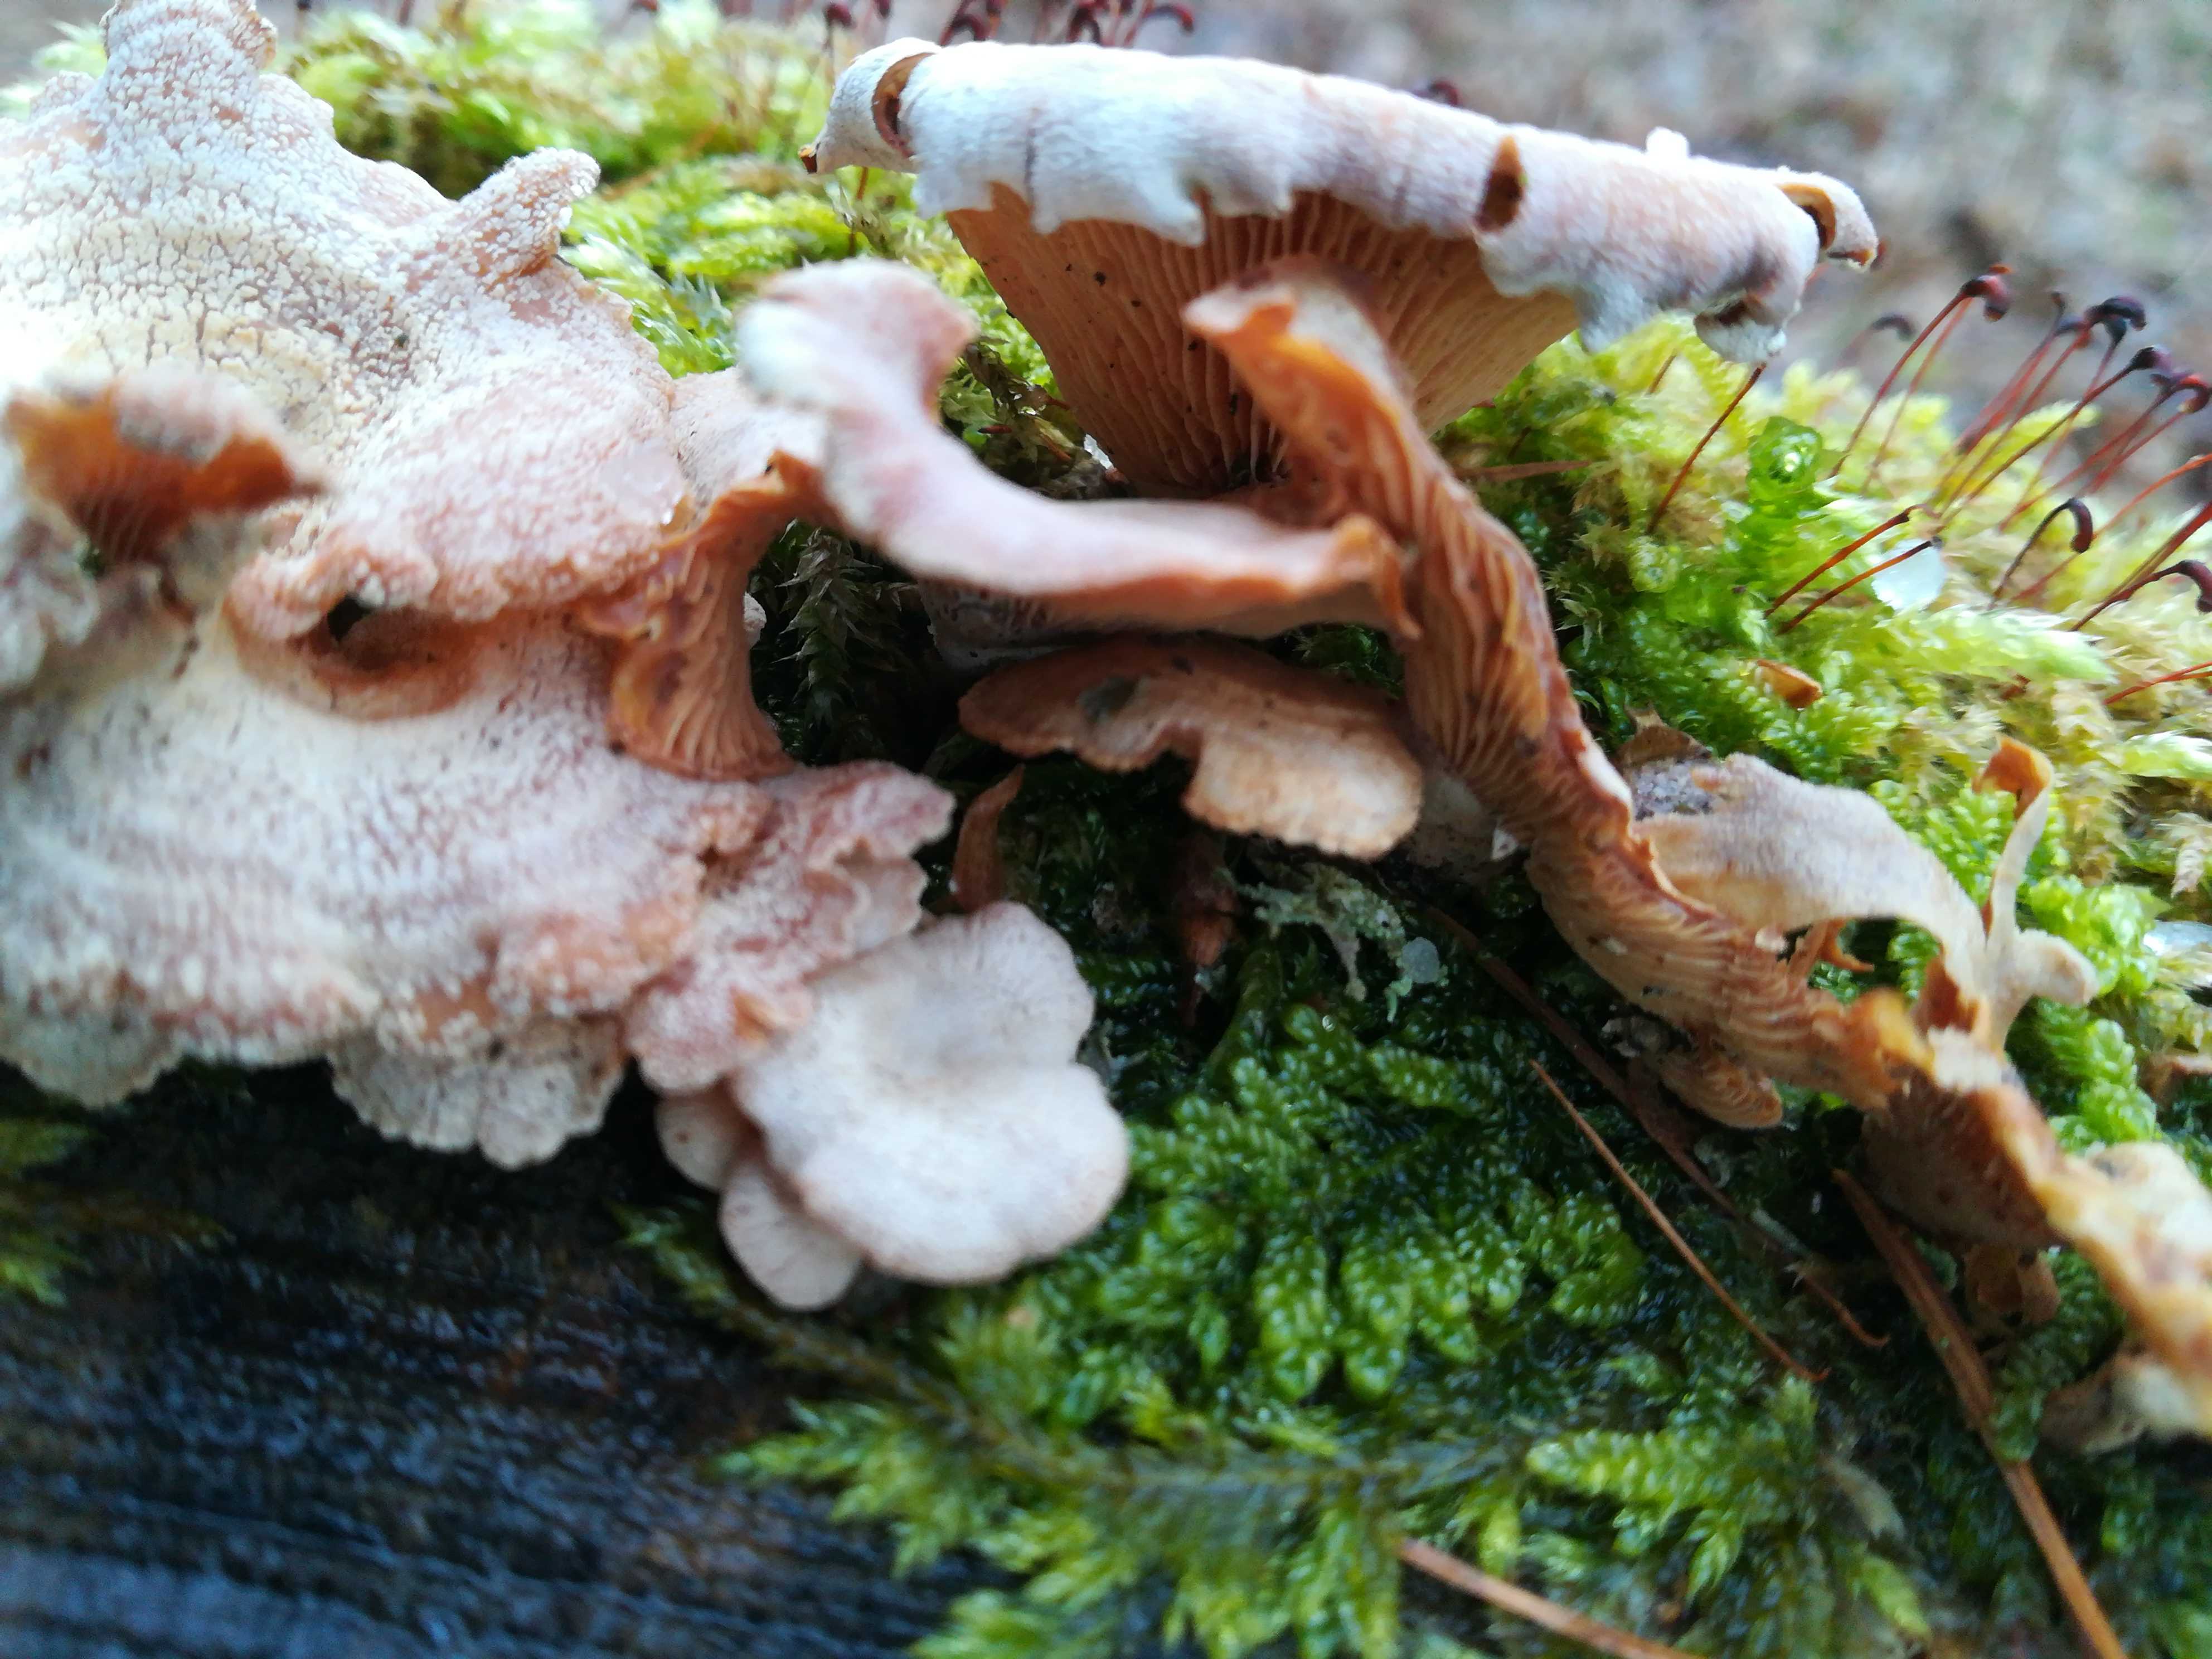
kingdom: Fungi
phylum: Basidiomycota
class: Agaricomycetes
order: Agaricales
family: Mycenaceae
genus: Panellus
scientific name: Panellus stipticus
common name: kliddet epaulethat
